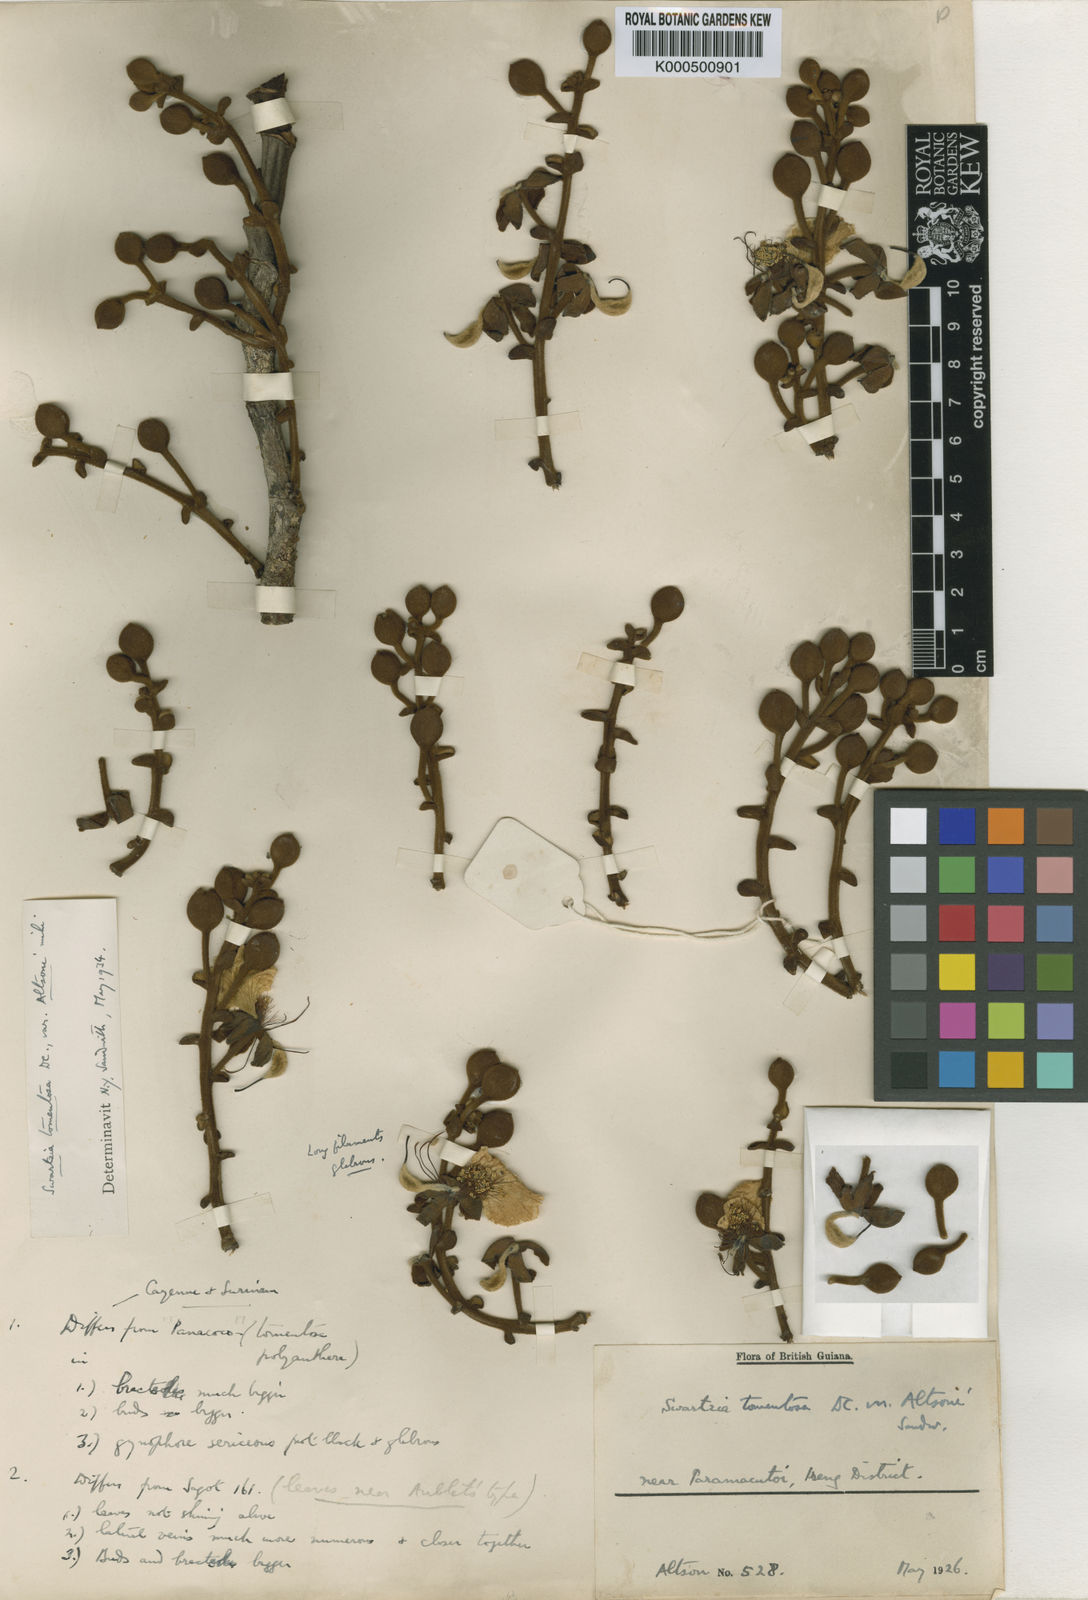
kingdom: Plantae
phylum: Tracheophyta
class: Magnoliopsida
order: Fabales
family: Fabaceae
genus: Swartzia
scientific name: Swartzia panacoco
